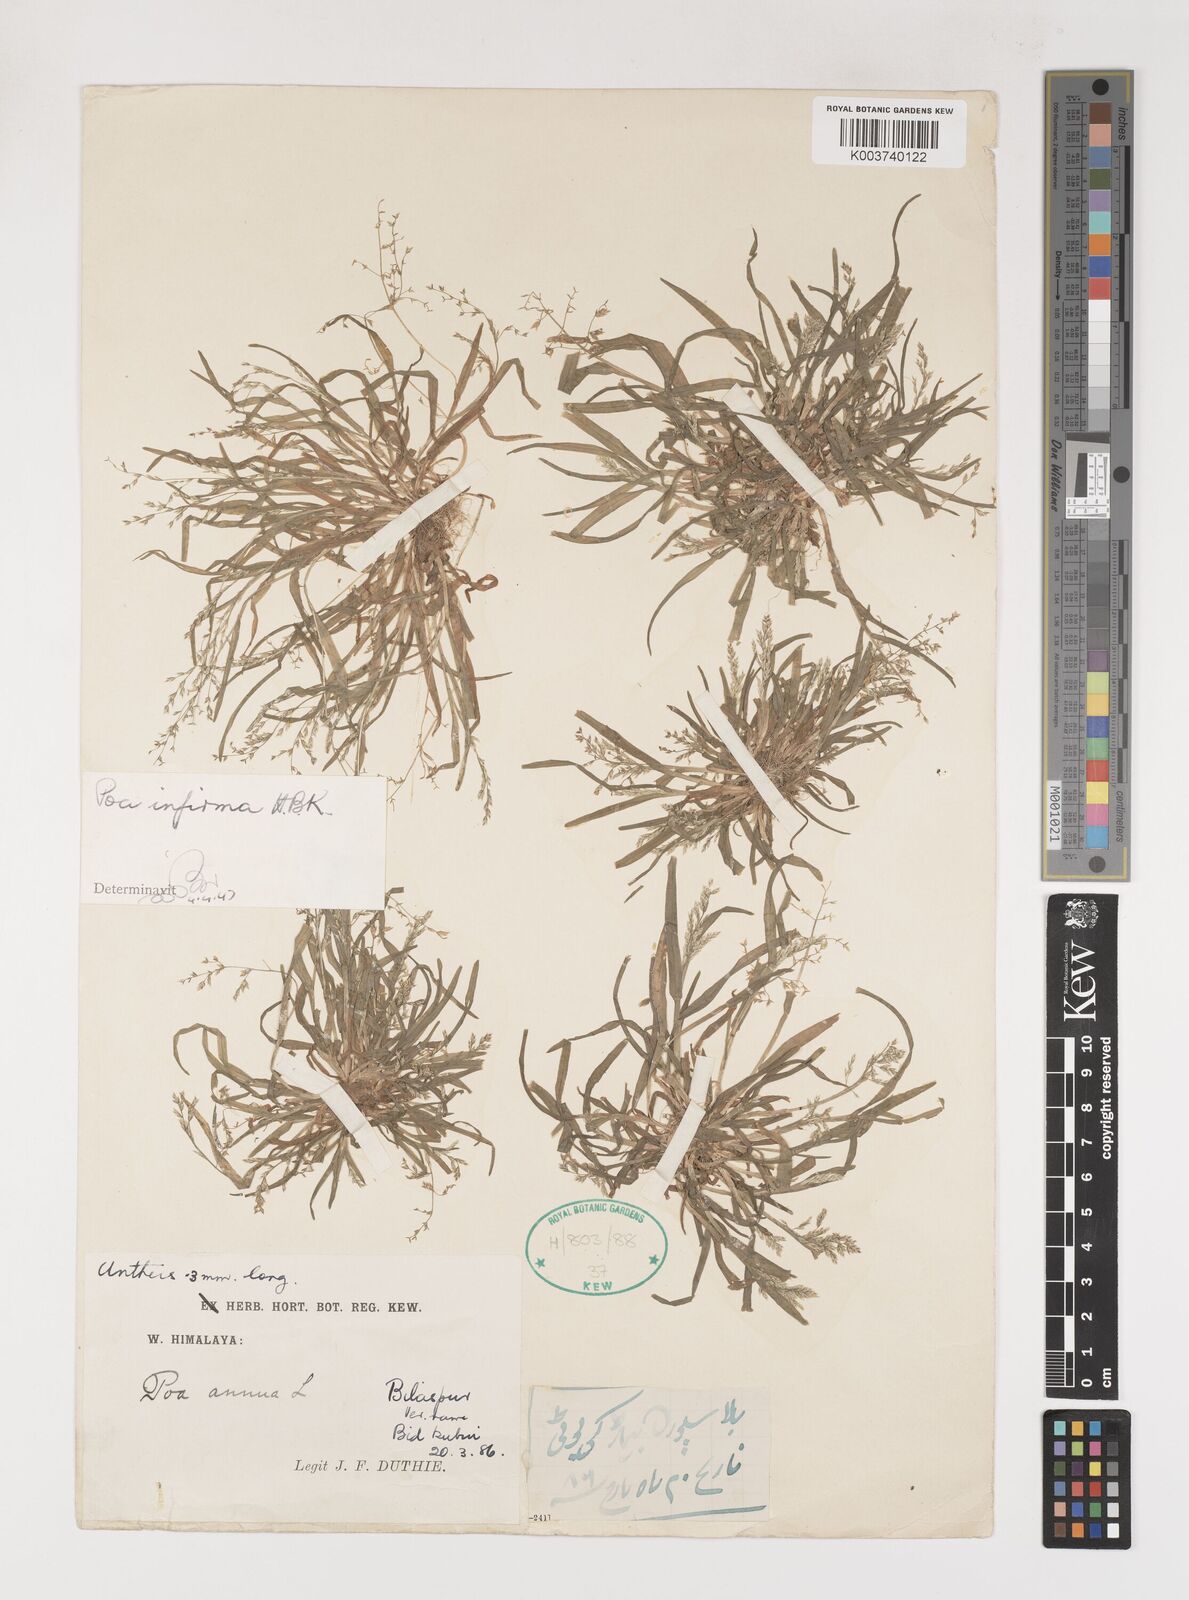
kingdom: Plantae
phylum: Tracheophyta
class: Liliopsida
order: Poales
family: Poaceae
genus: Poa
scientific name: Poa infirma
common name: Weak bluegrass
